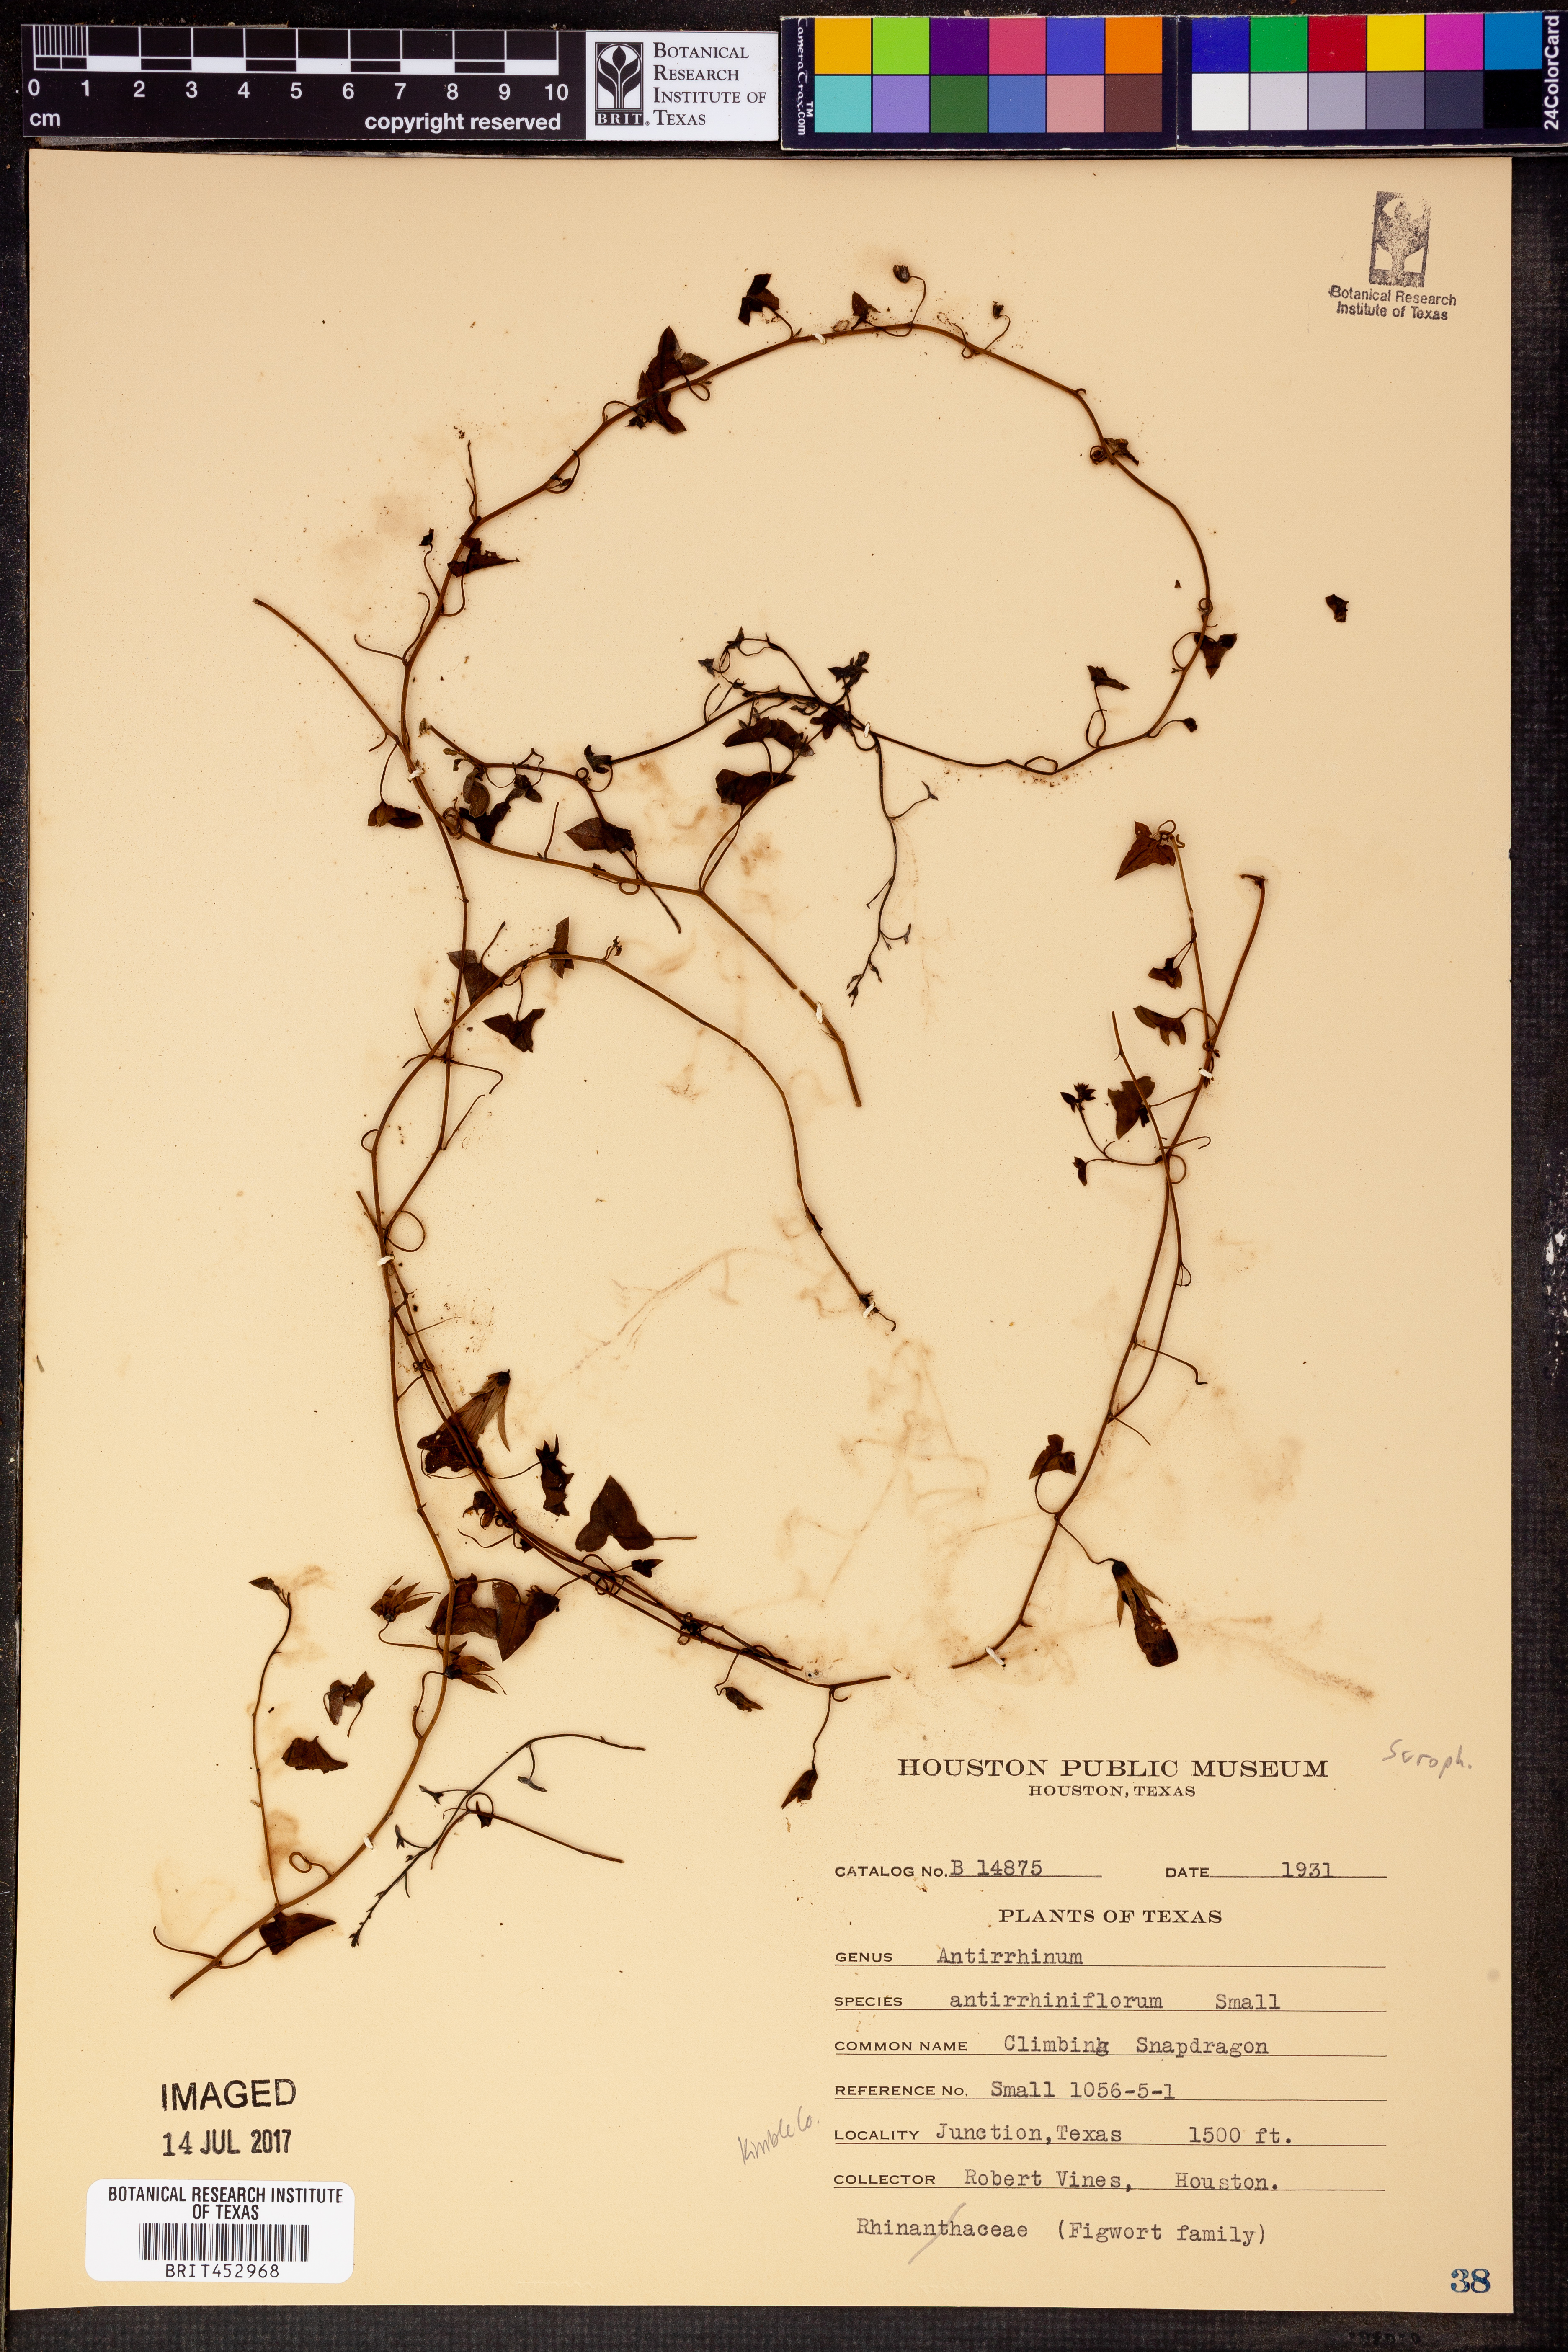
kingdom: Plantae
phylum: Tracheophyta
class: Magnoliopsida
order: Lamiales
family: Plantaginaceae
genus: Maurandella
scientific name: Maurandella antirrhiniflora
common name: Violet twining-snapdragon
